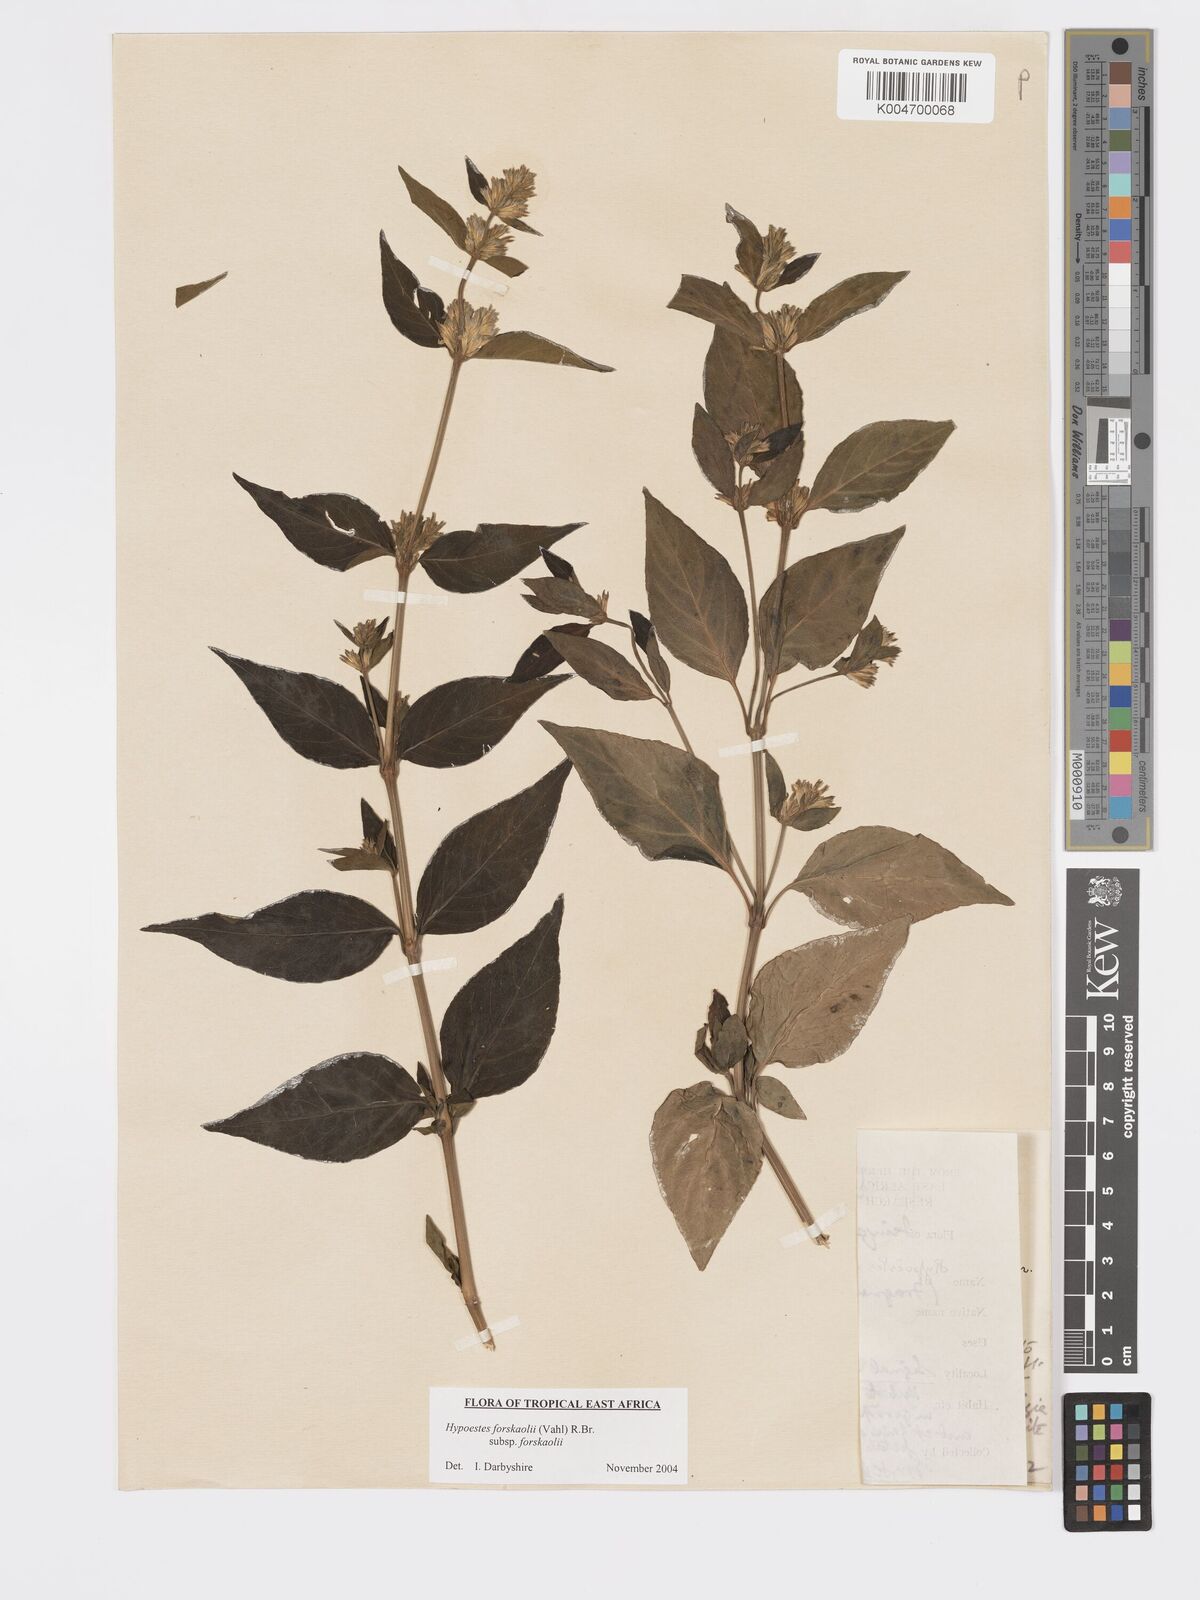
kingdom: Plantae
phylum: Tracheophyta
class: Magnoliopsida
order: Lamiales
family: Acanthaceae
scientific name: Acanthaceae
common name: Acanthaceae
